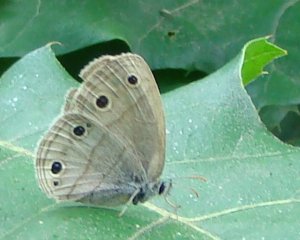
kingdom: Animalia
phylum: Arthropoda
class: Insecta
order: Lepidoptera
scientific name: Lepidoptera
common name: Butterflies
